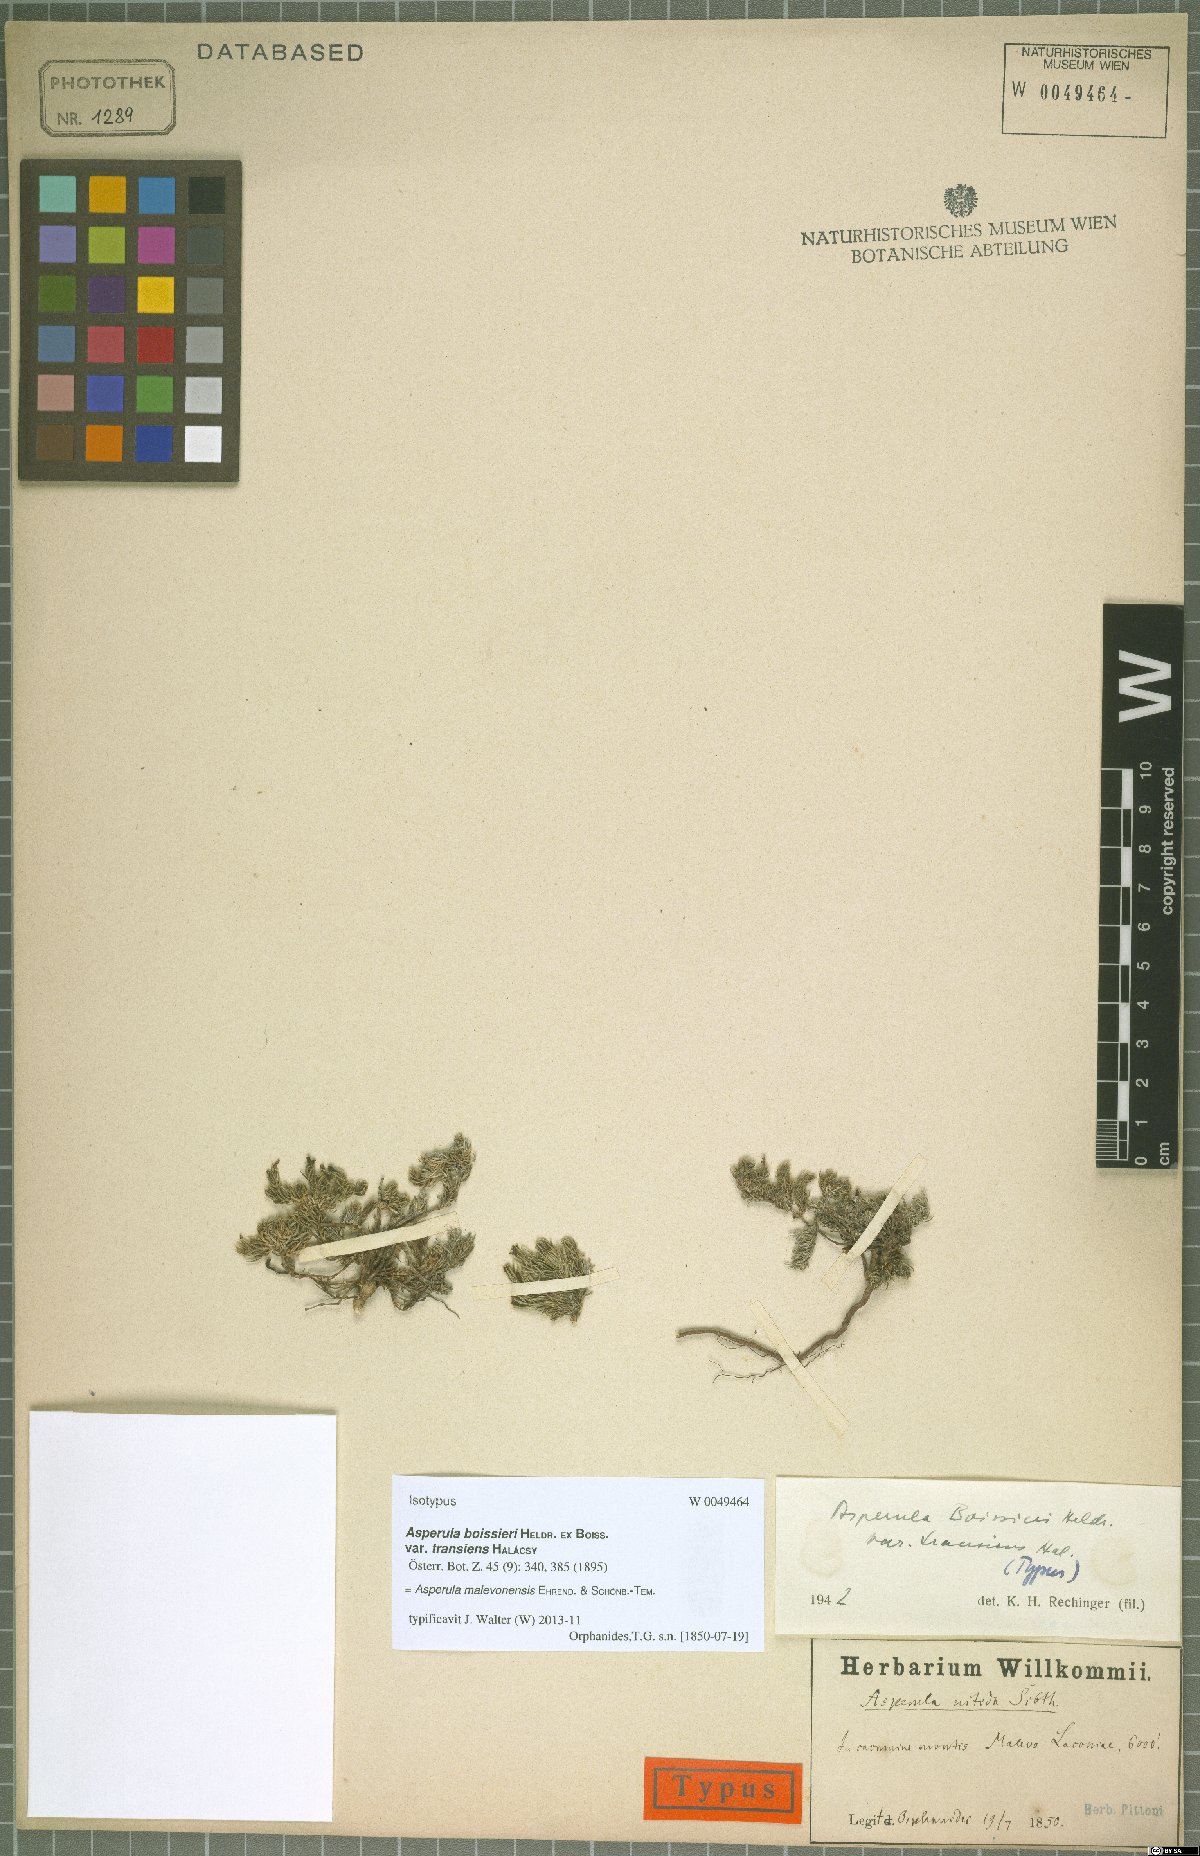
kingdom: Plantae
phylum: Tracheophyta
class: Magnoliopsida
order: Gentianales
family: Rubiaceae
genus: Cynanchica
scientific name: Cynanchica malevonensis
